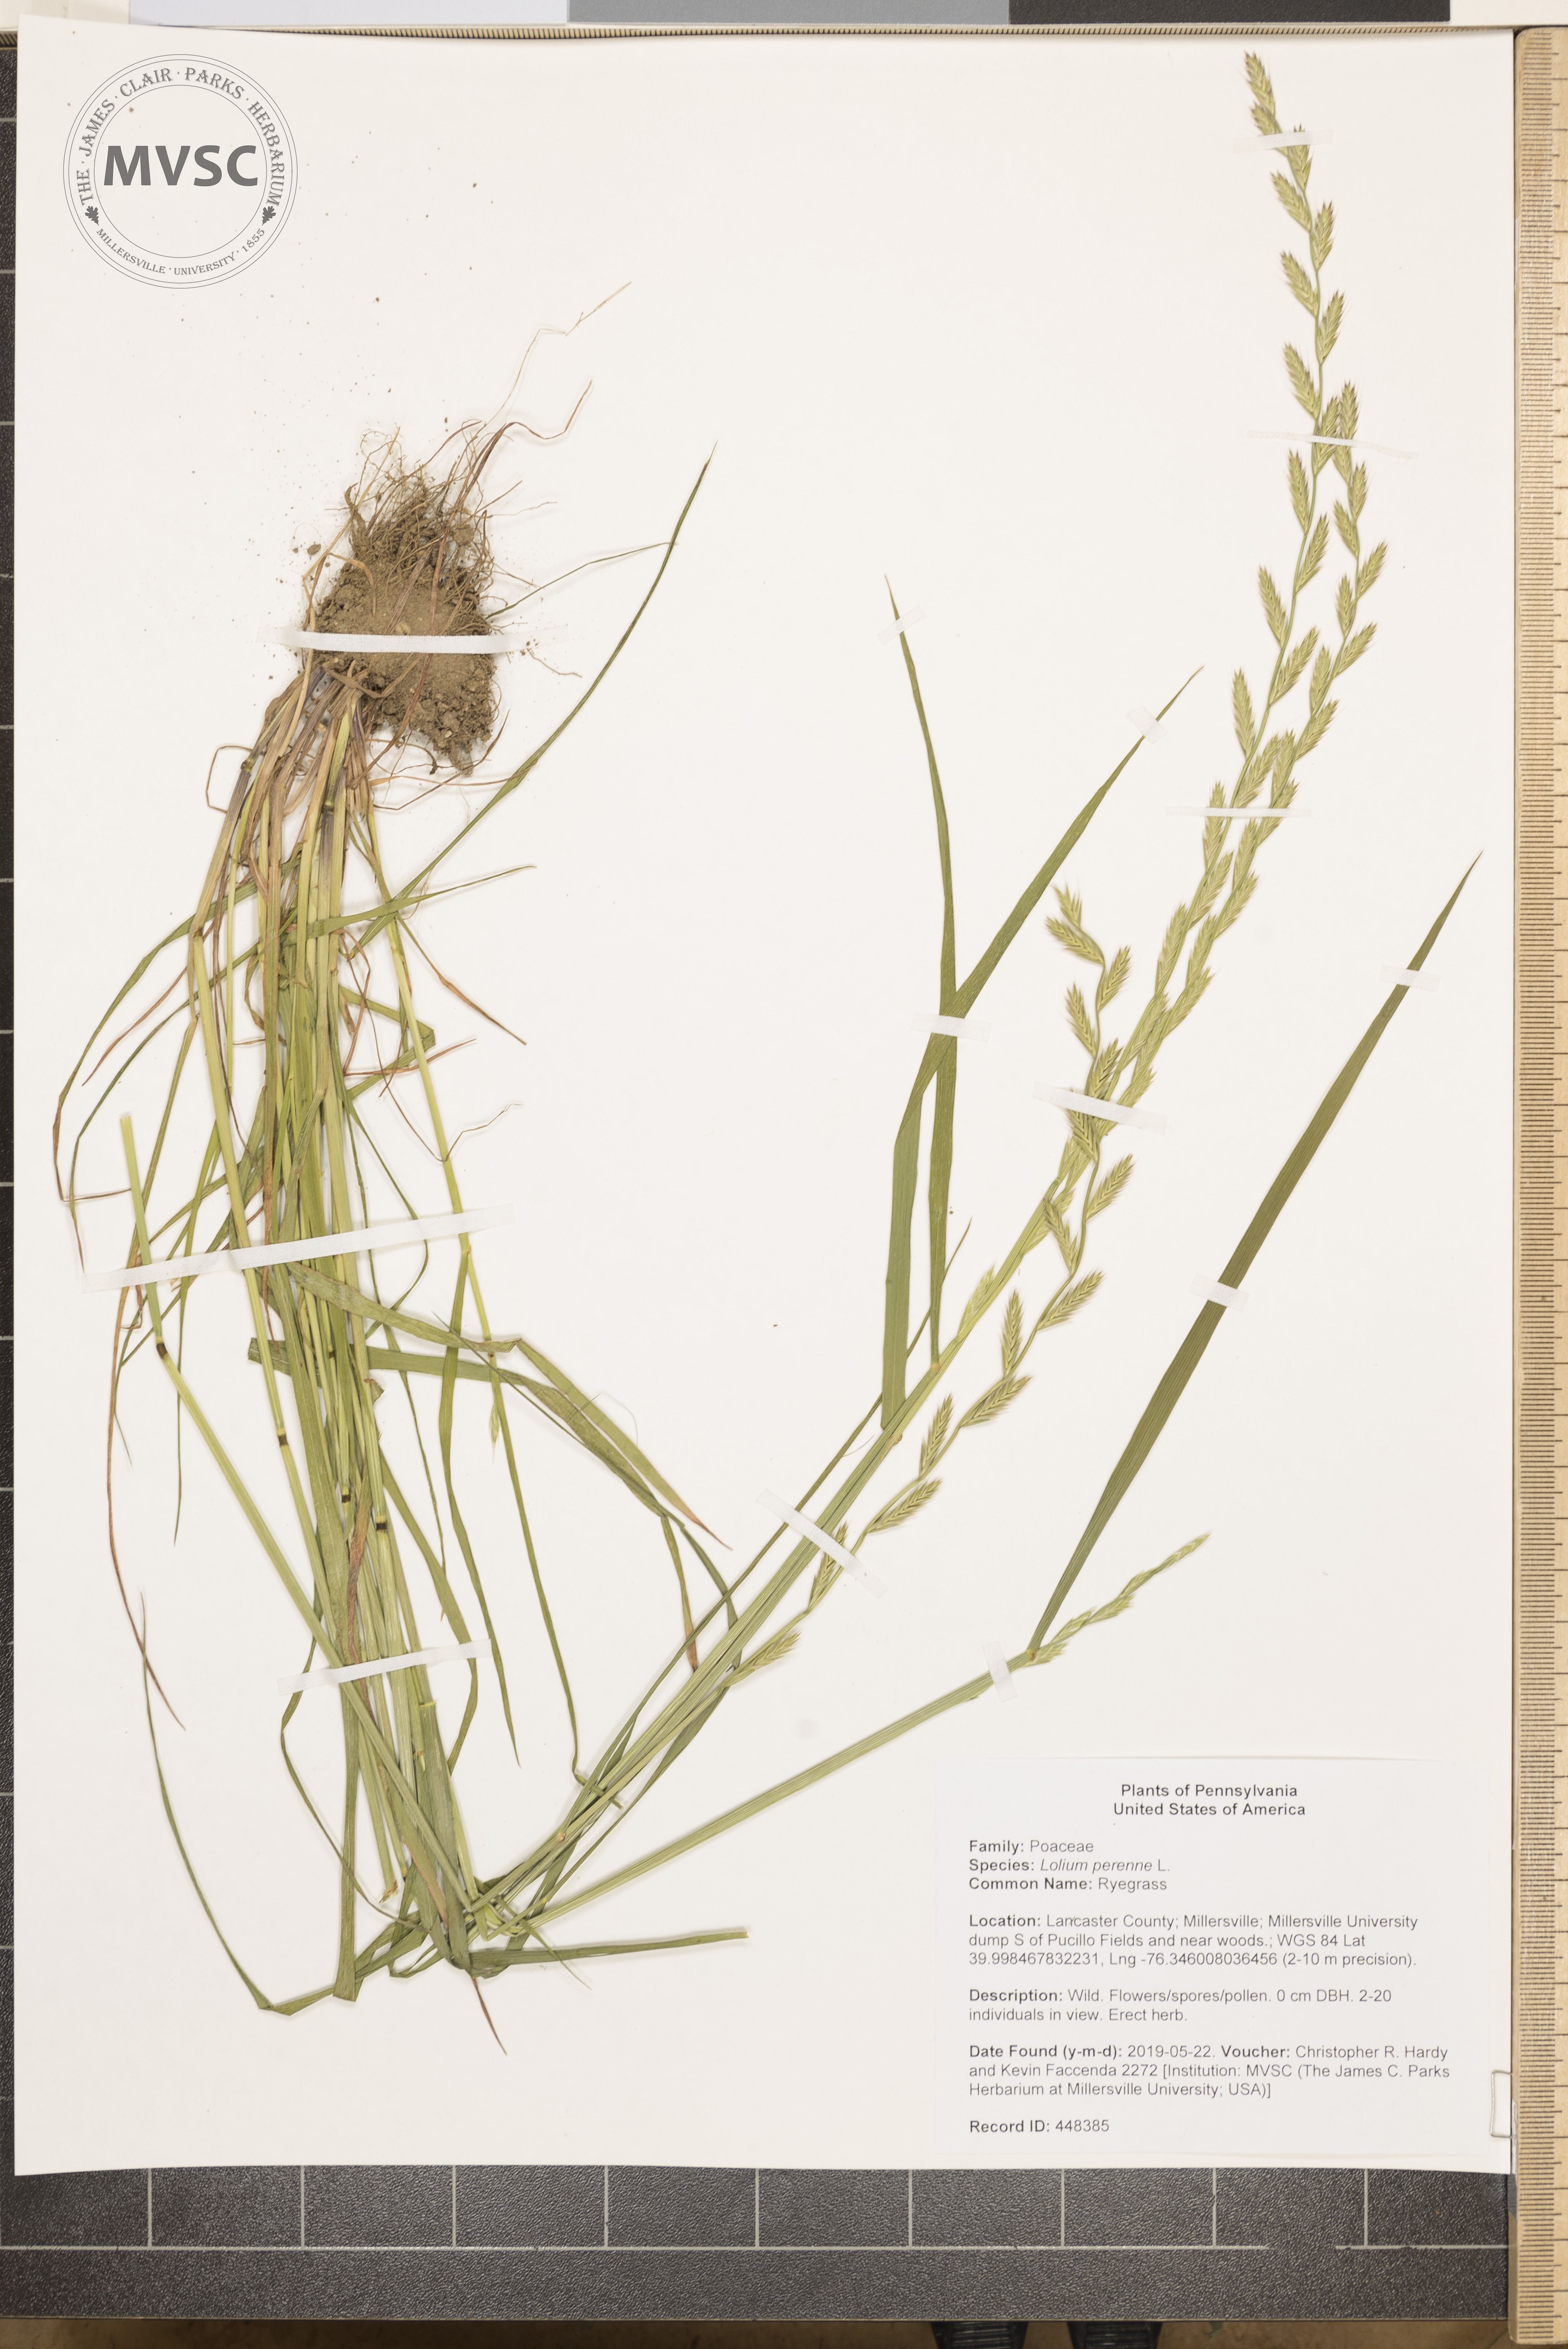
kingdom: Plantae
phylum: Tracheophyta
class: Liliopsida
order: Poales
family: Poaceae
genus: Lolium
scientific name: Lolium perenne
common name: Ryegrass
